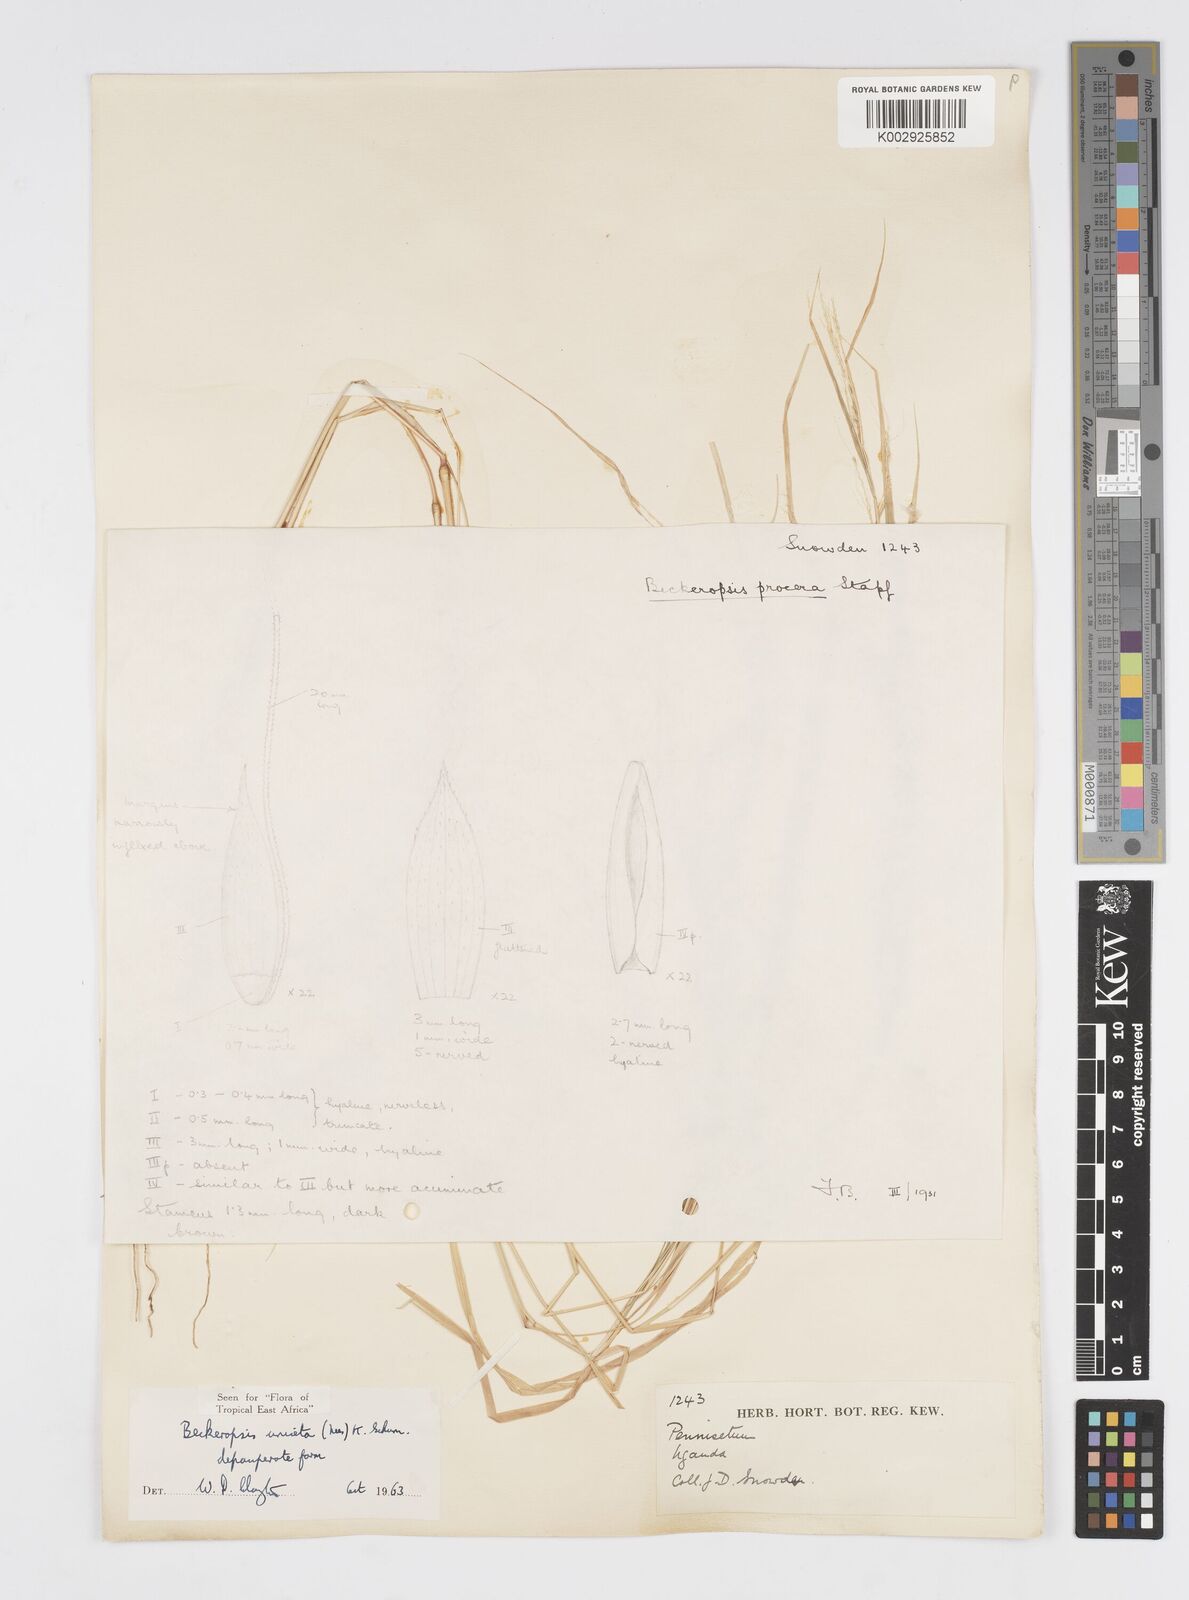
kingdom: Plantae
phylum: Tracheophyta
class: Liliopsida
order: Poales
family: Poaceae
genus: Cenchrus
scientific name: Cenchrus unisetus
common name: Natal grass
